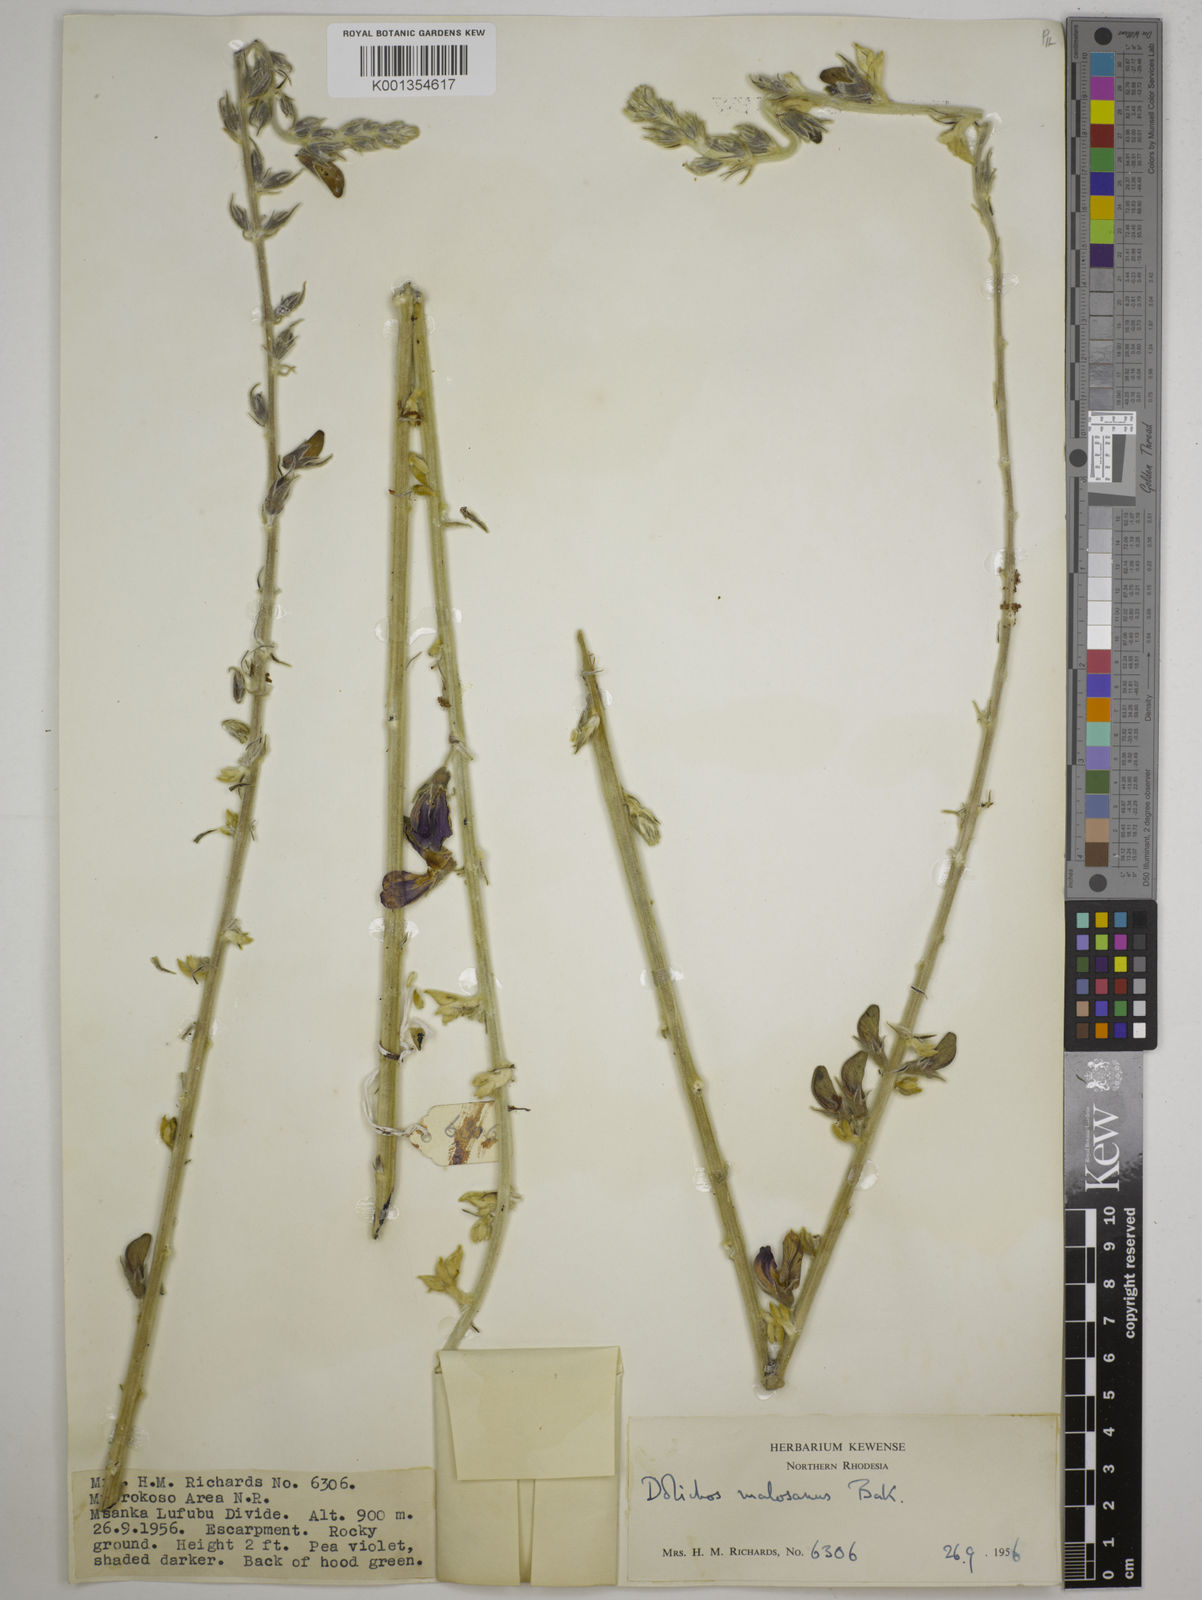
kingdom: Plantae
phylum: Tracheophyta
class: Magnoliopsida
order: Fabales
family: Fabaceae
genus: Dolichos
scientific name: Dolichos kilimandscharicus
